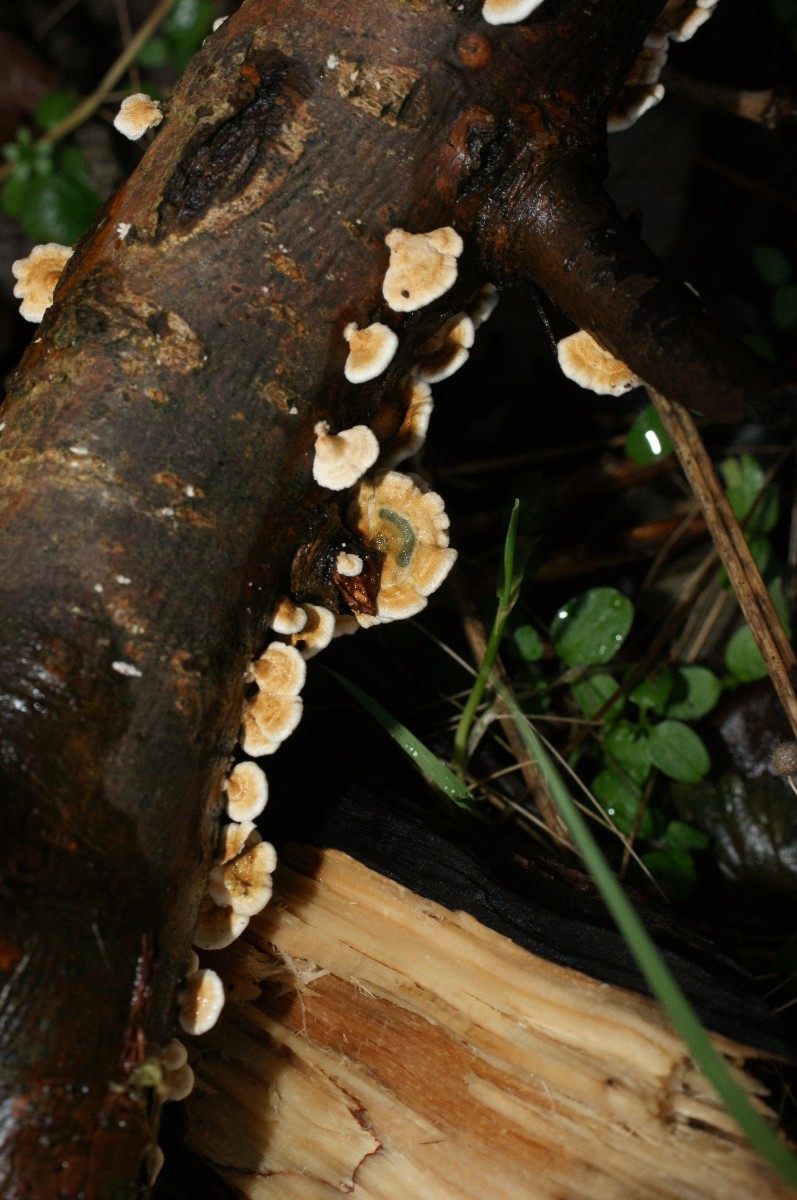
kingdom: Fungi
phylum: Basidiomycota
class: Agaricomycetes
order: Amylocorticiales
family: Amylocorticiaceae
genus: Plicaturopsis
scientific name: Plicaturopsis crispa
